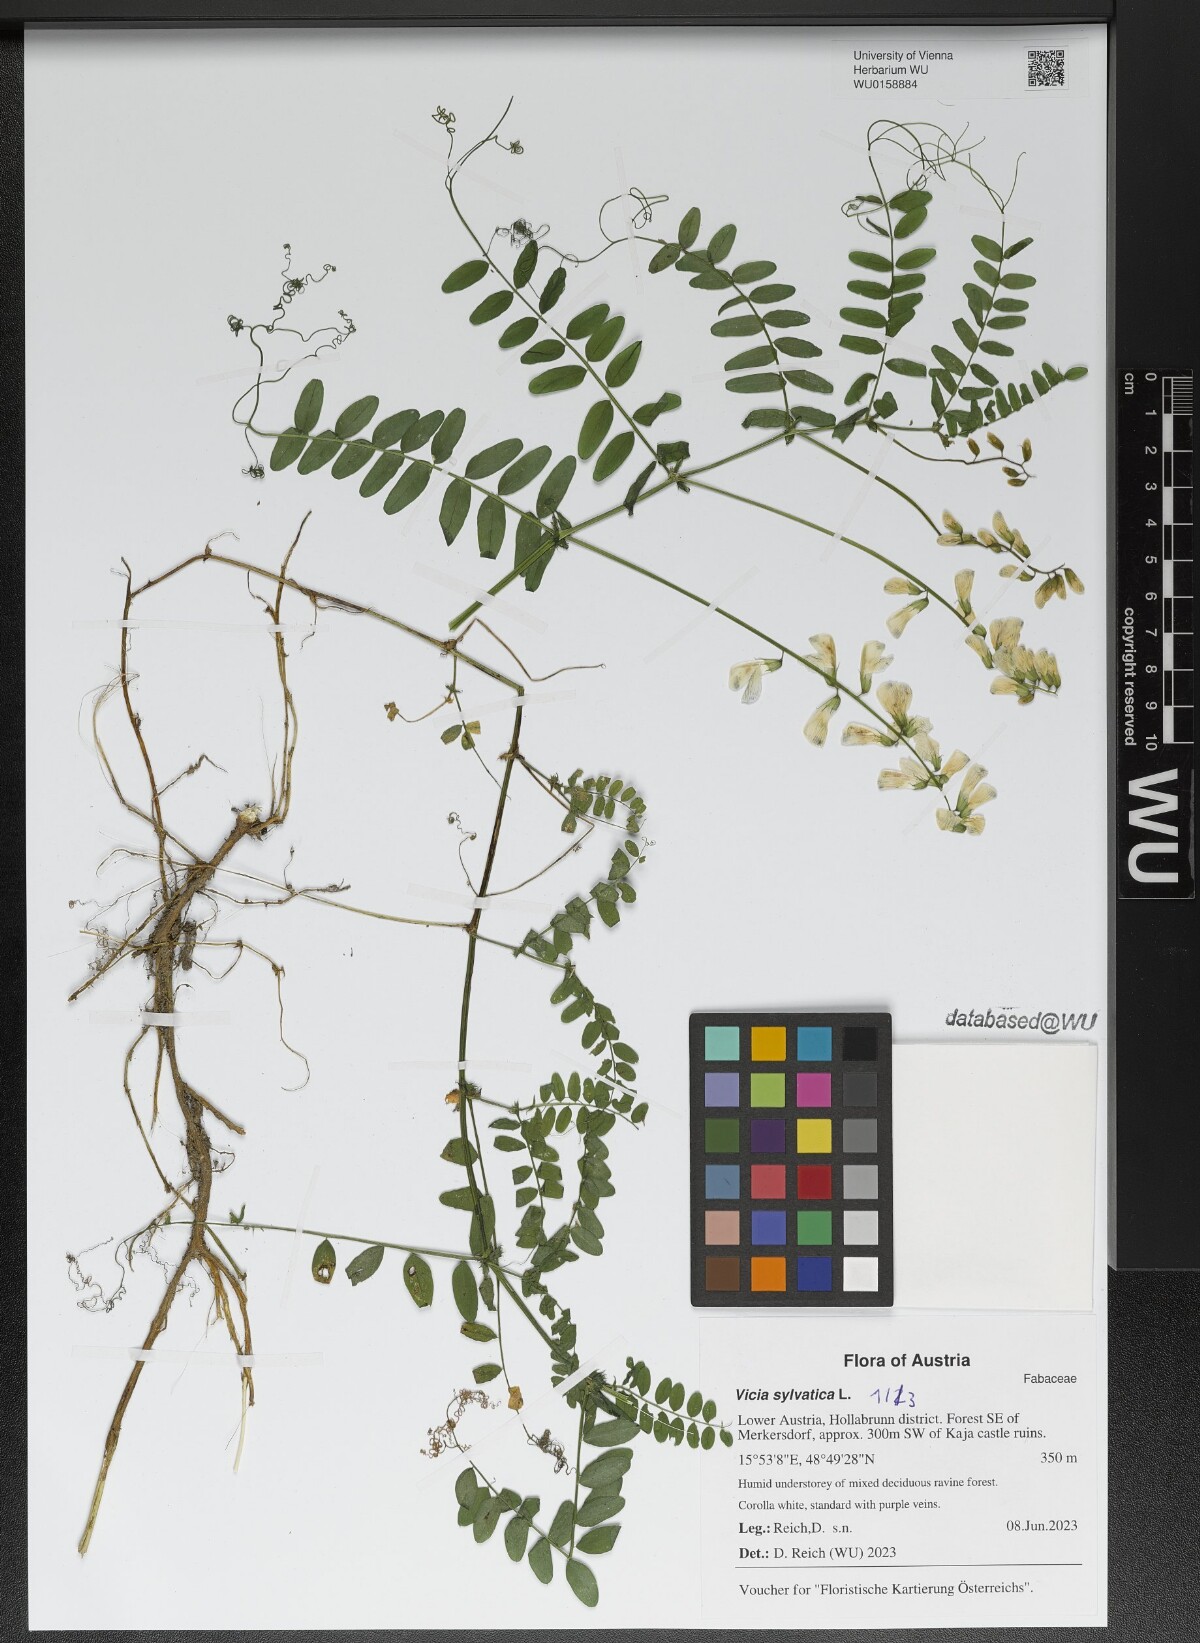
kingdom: Plantae
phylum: Tracheophyta
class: Magnoliopsida
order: Fabales
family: Fabaceae
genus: Vicia
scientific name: Vicia sylvatica
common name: Wood vetch
